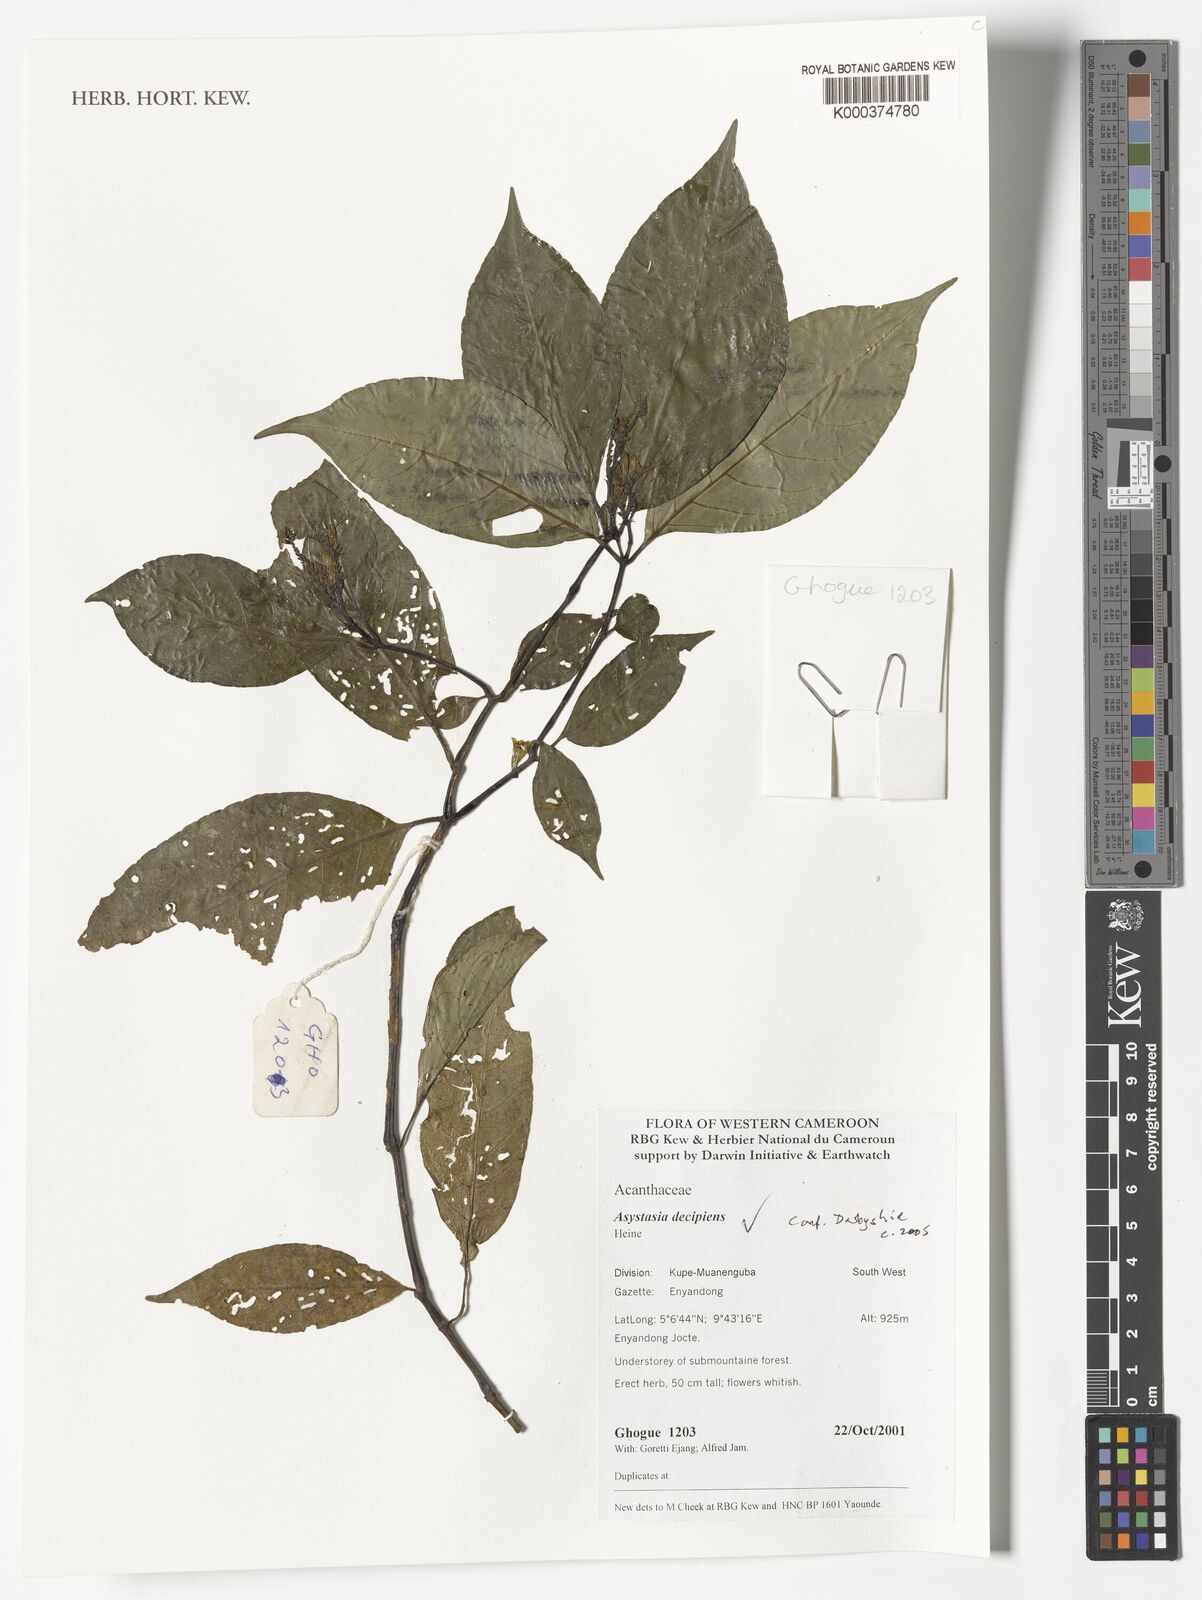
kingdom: Plantae
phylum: Tracheophyta
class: Magnoliopsida
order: Lamiales
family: Acanthaceae
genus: Asystasia
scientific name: Asystasia decipiens
